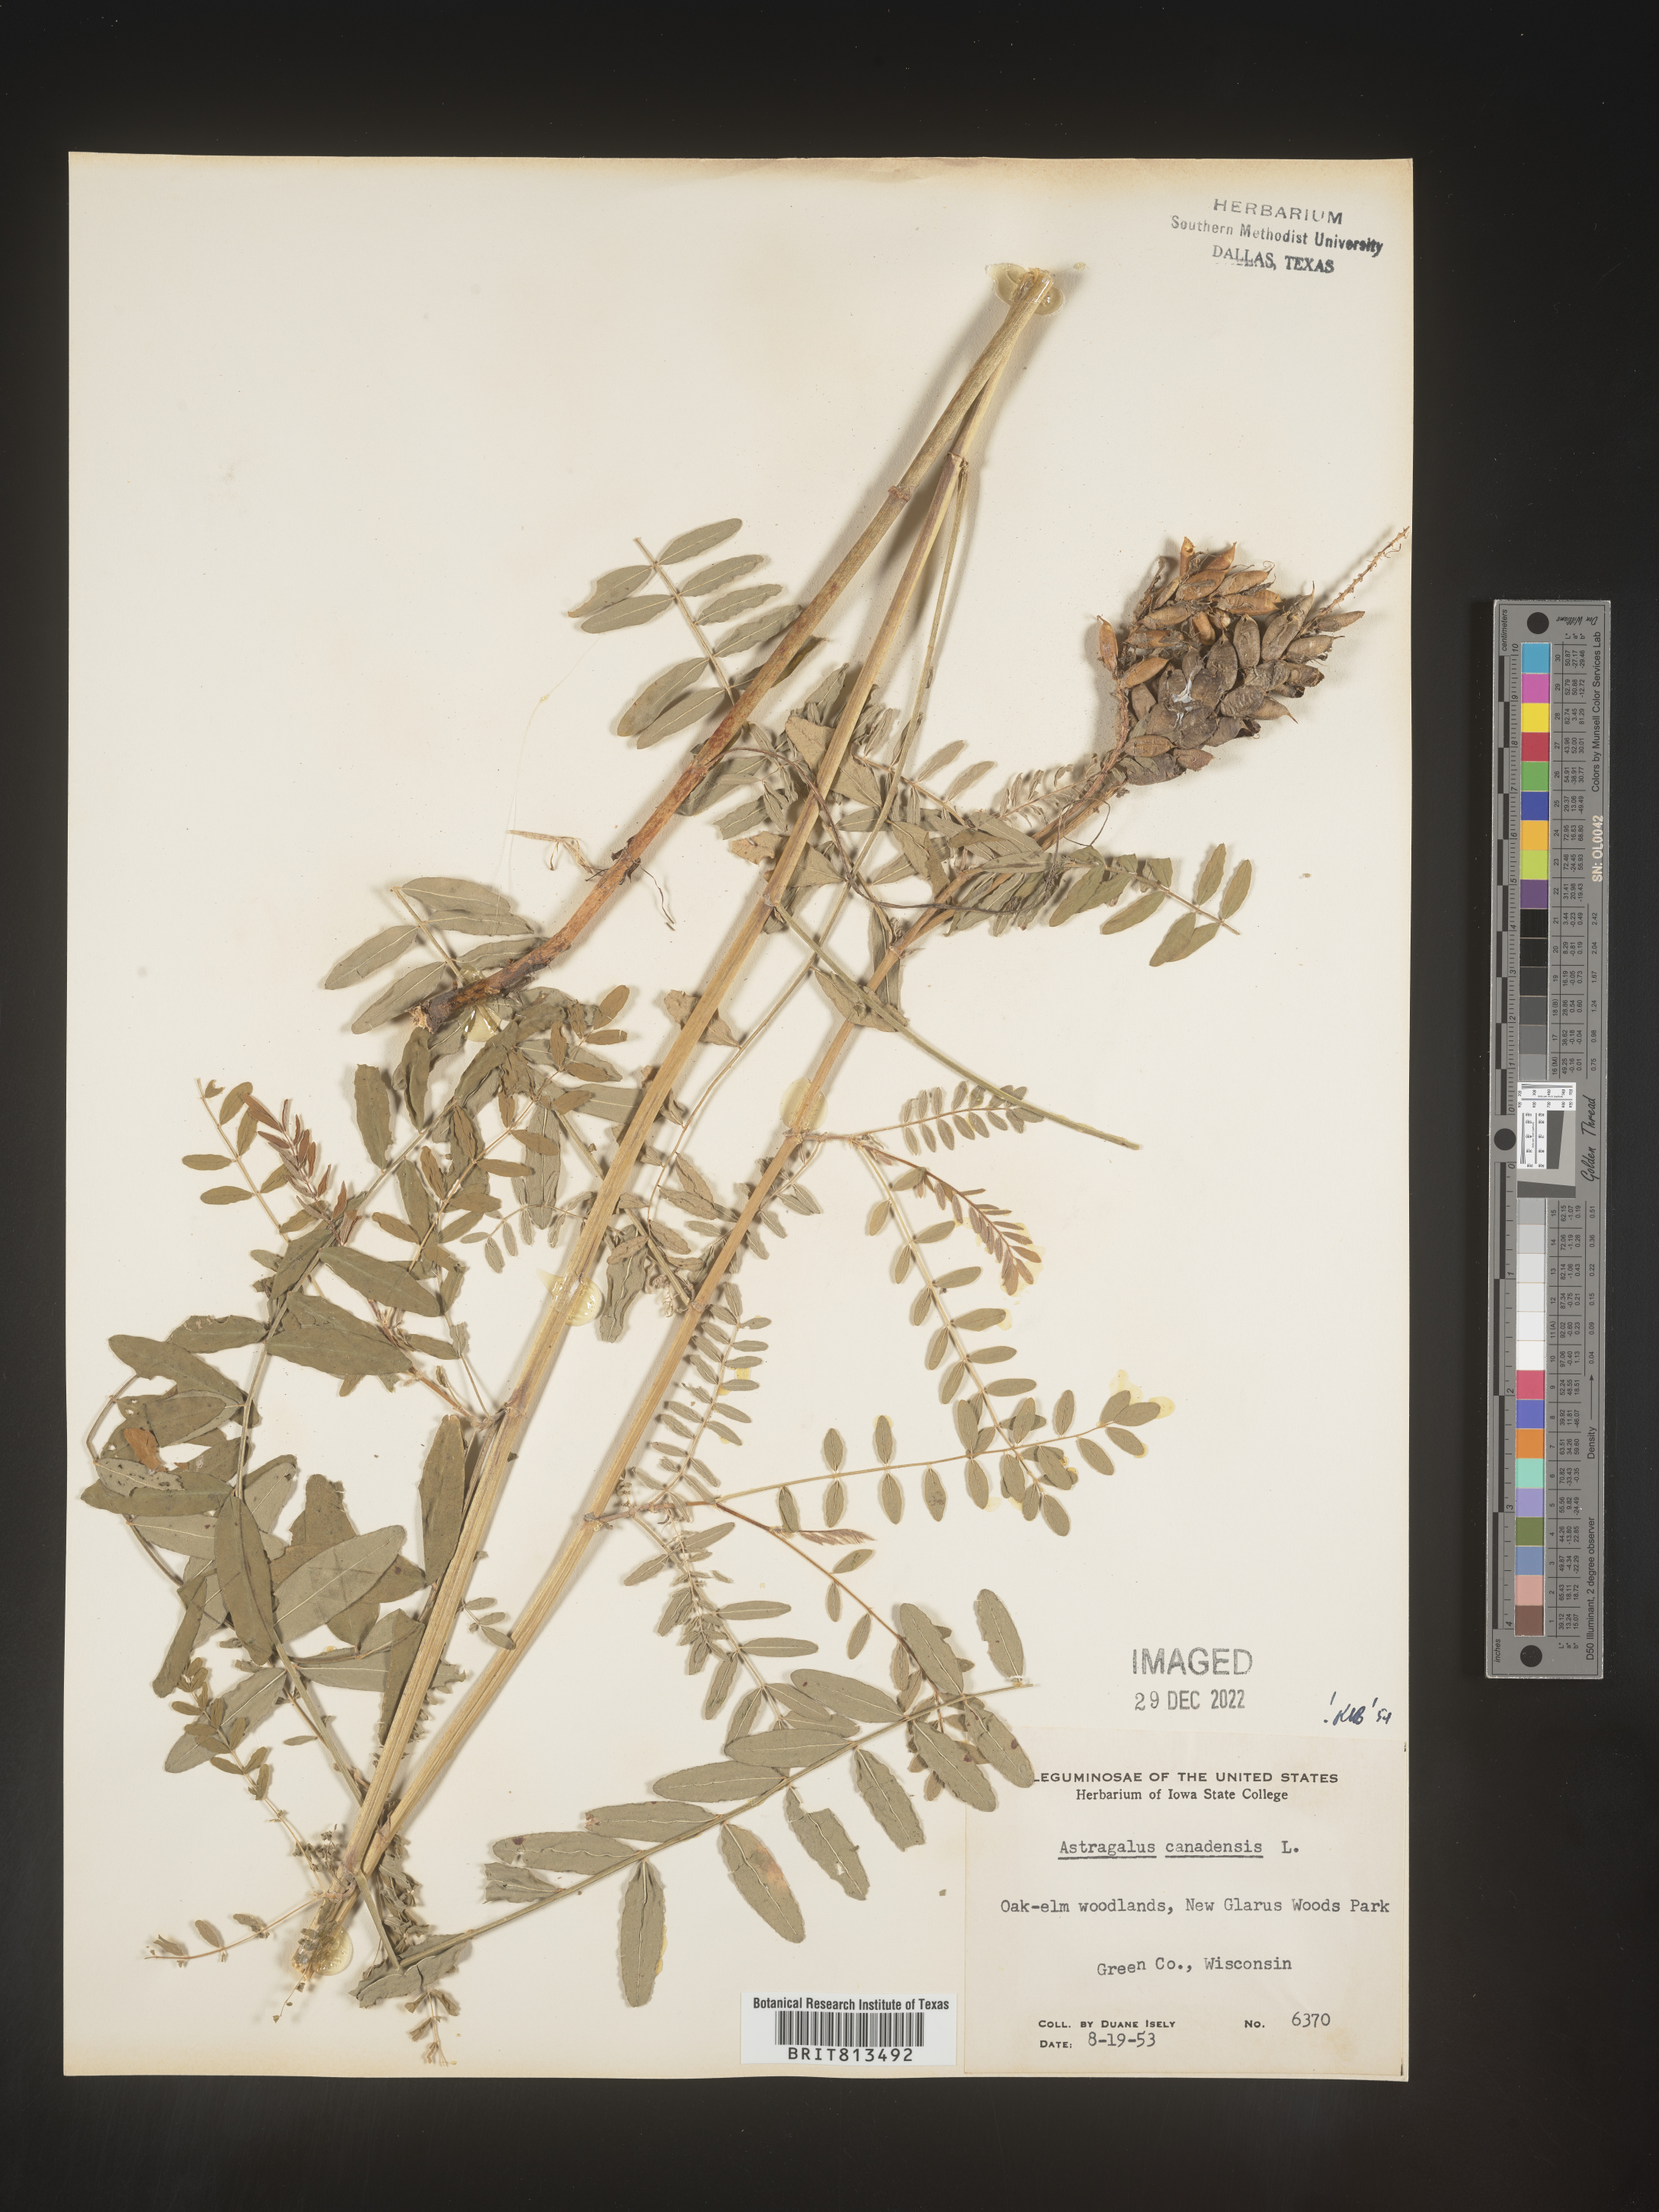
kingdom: Plantae
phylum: Tracheophyta
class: Magnoliopsida
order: Fabales
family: Fabaceae
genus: Astragalus
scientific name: Astragalus canadensis
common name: Canada milk-vetch
